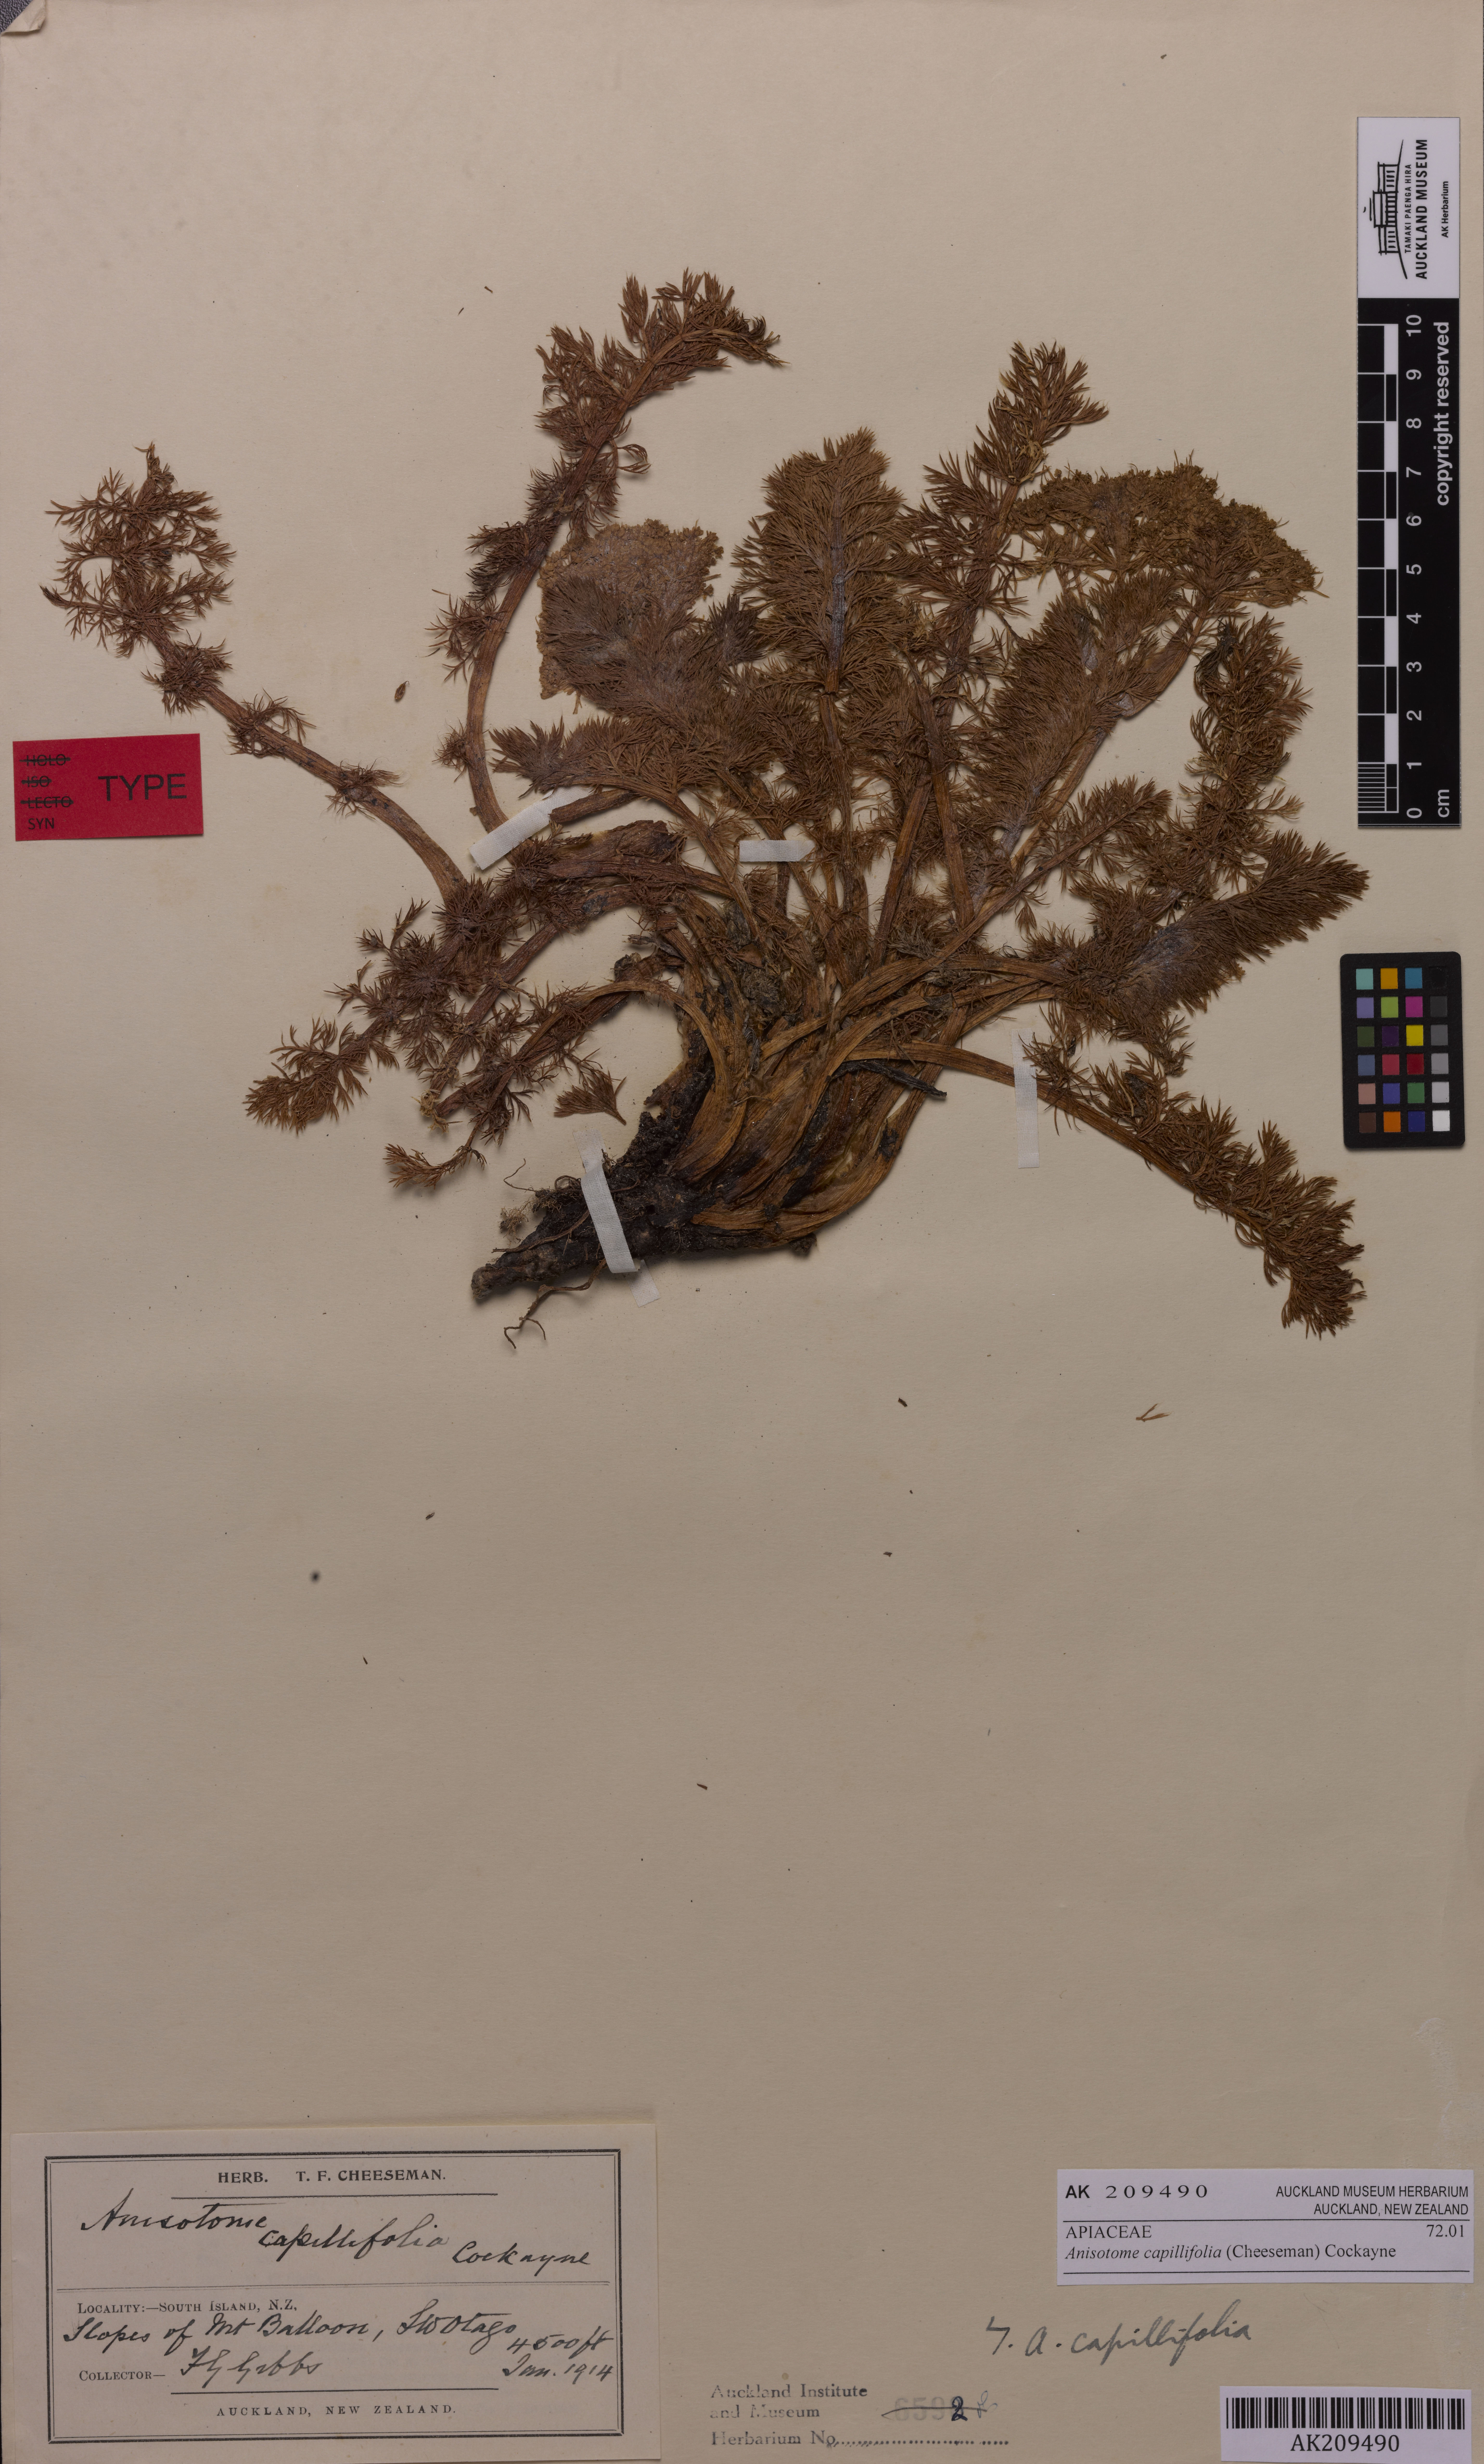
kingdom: Plantae
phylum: Tracheophyta
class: Magnoliopsida
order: Apiales
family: Apiaceae
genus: Anisotome
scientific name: Anisotome capillifolia
